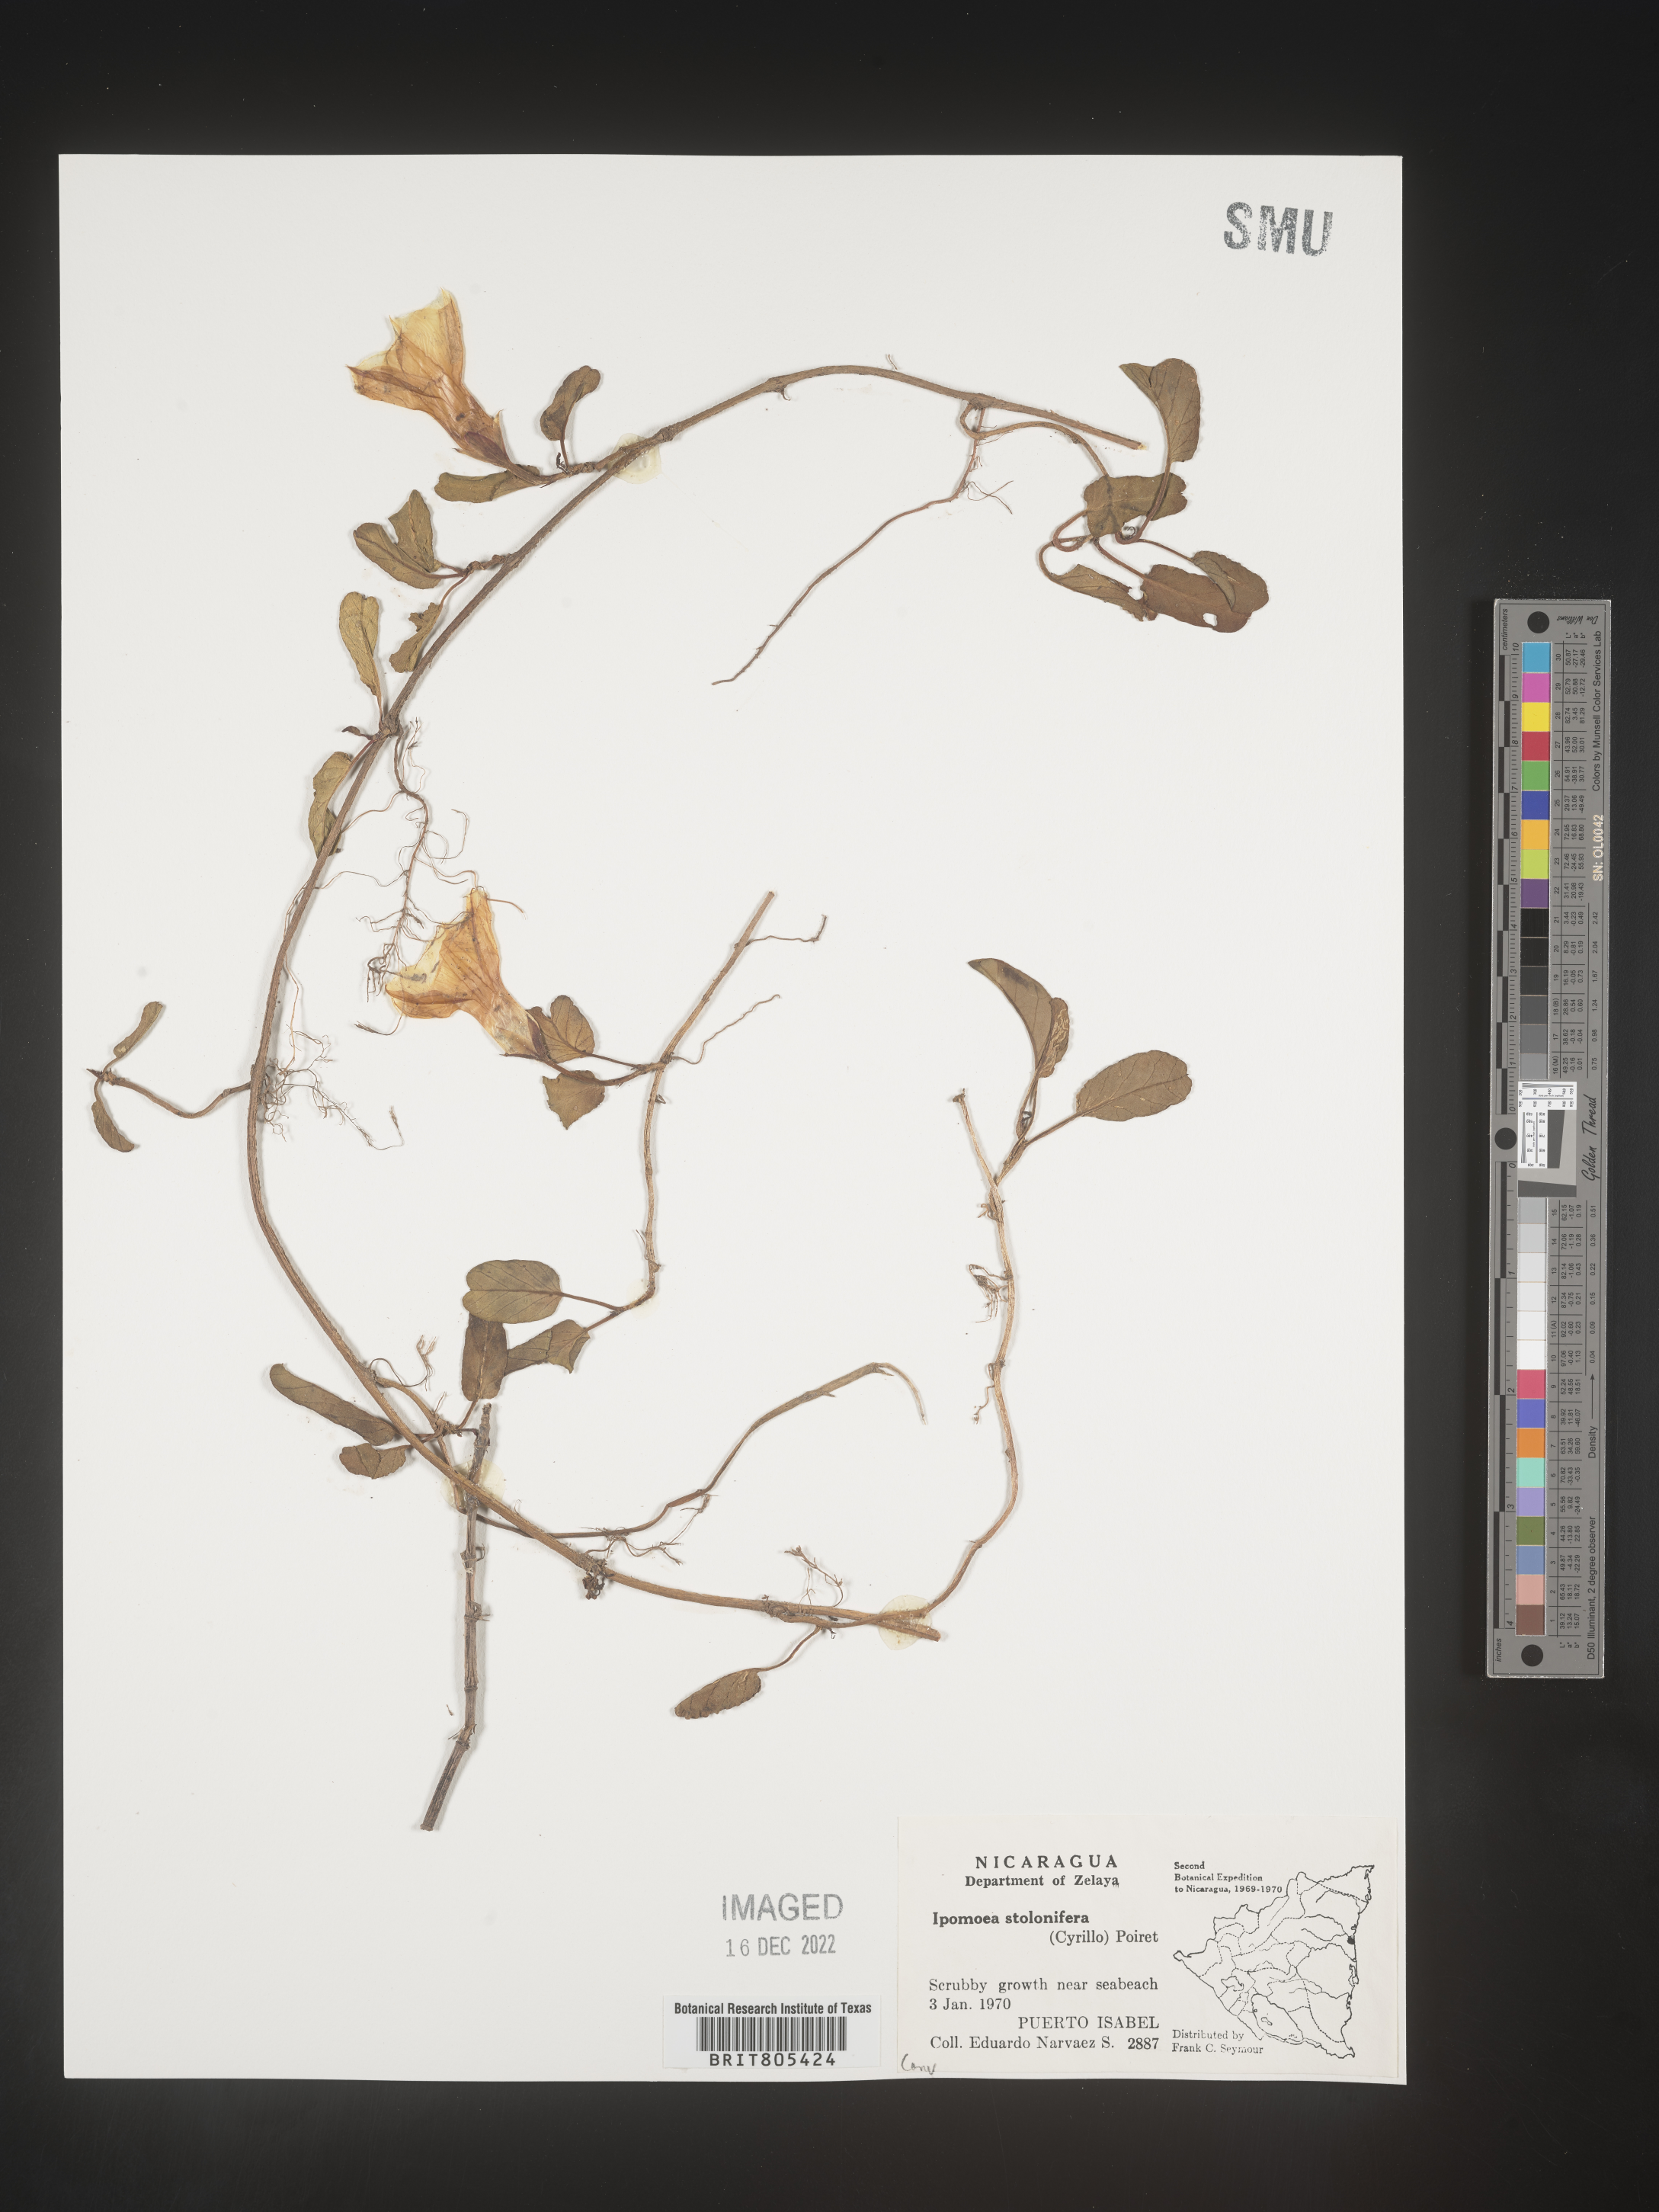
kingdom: Plantae
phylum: Tracheophyta
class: Magnoliopsida
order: Solanales
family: Convolvulaceae
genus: Ipomoea
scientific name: Ipomoea
